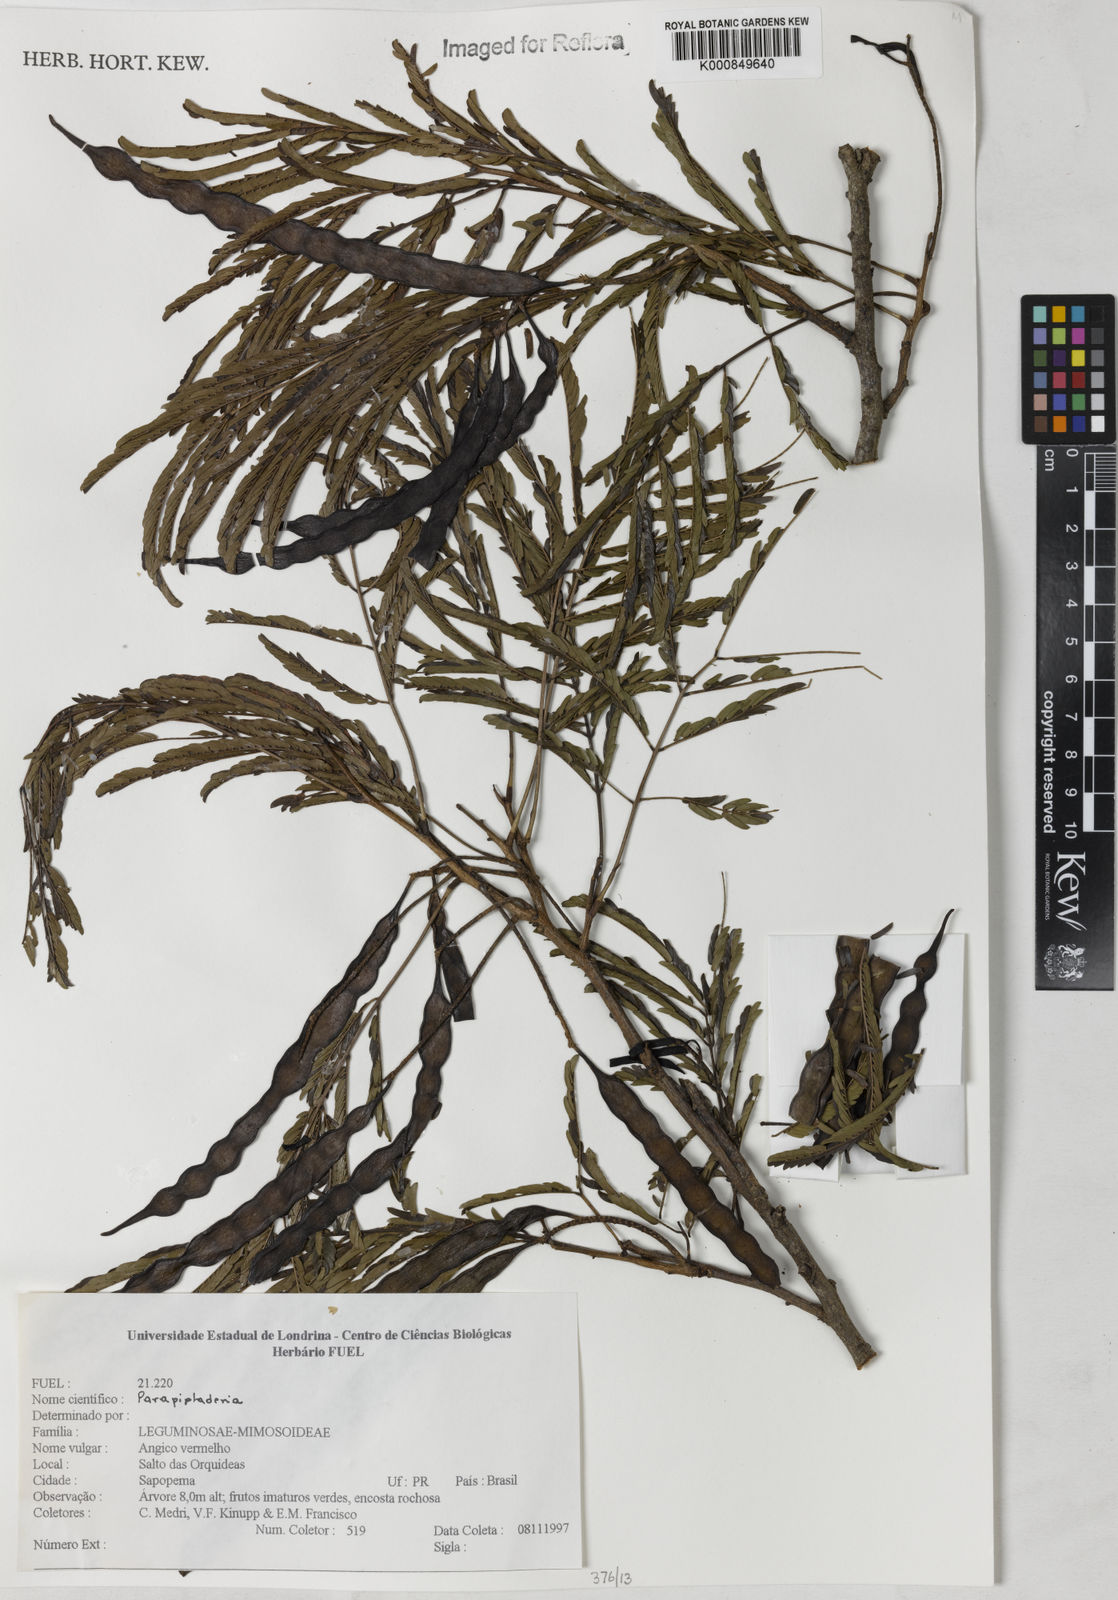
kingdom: Plantae
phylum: Tracheophyta
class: Magnoliopsida
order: Fabales
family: Fabaceae
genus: Parapiptadenia
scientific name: Parapiptadenia
